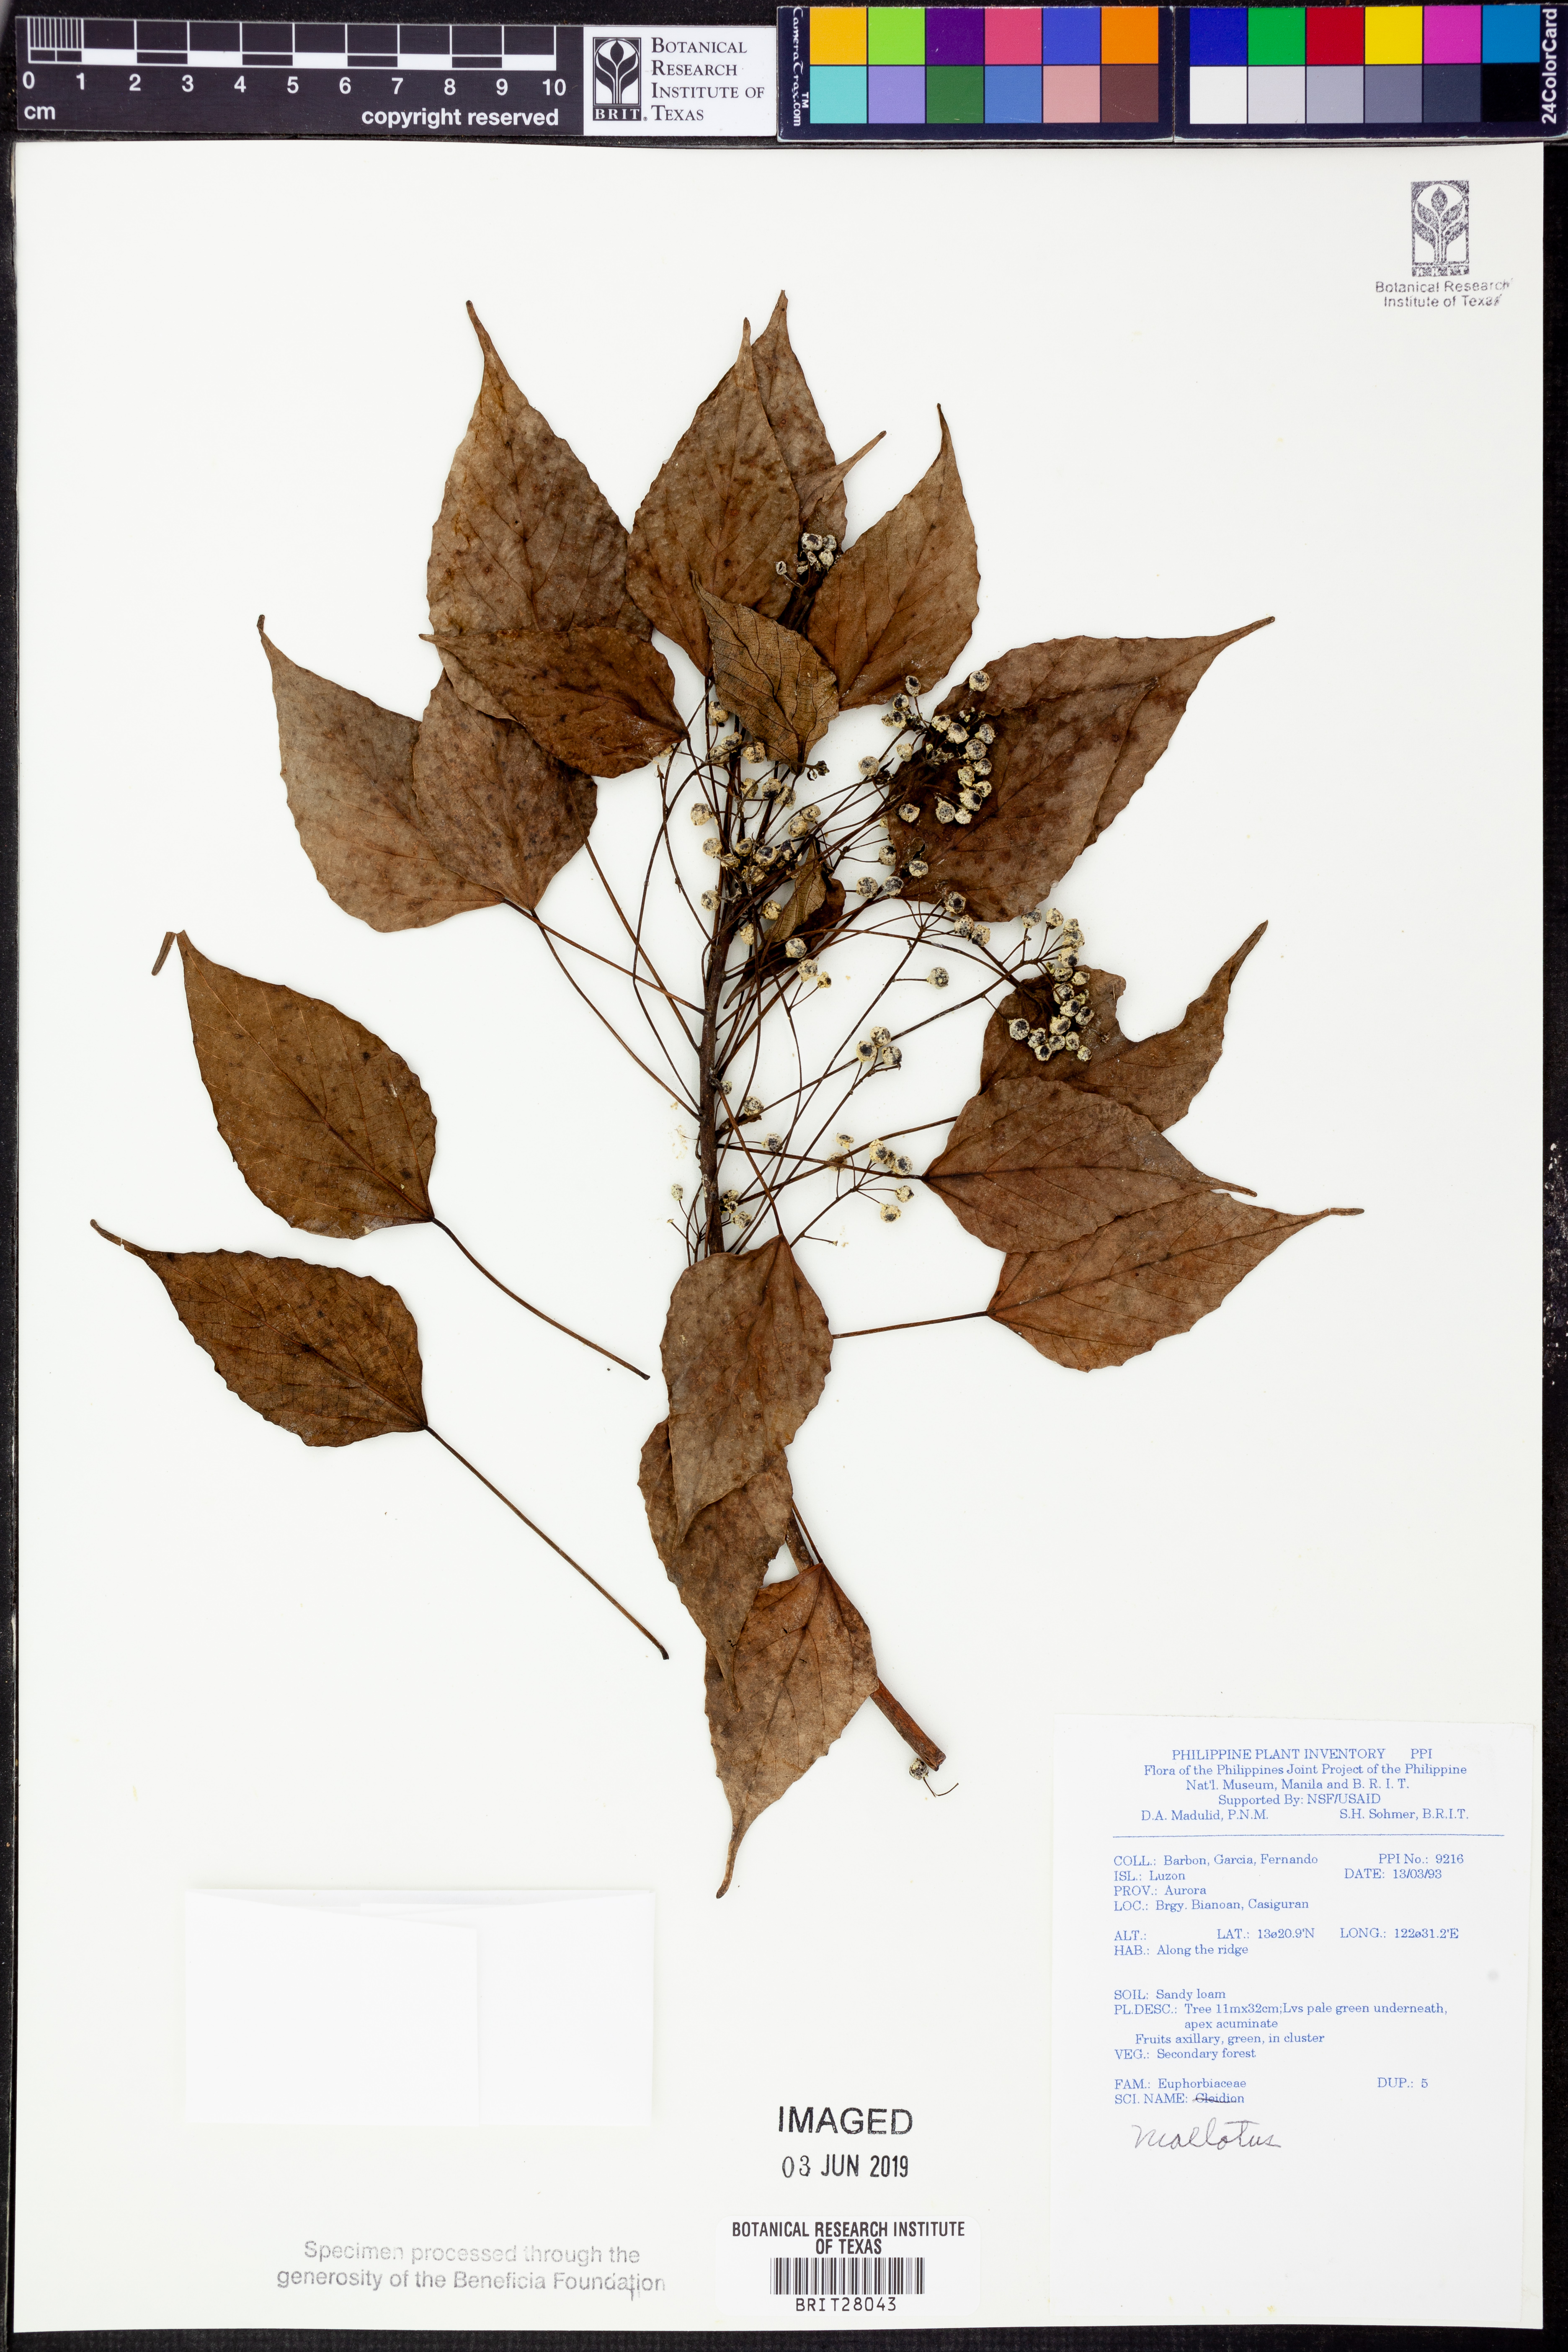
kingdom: Plantae
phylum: Tracheophyta
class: Magnoliopsida
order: Malpighiales
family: Euphorbiaceae
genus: Mallotus
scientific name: Mallotus
